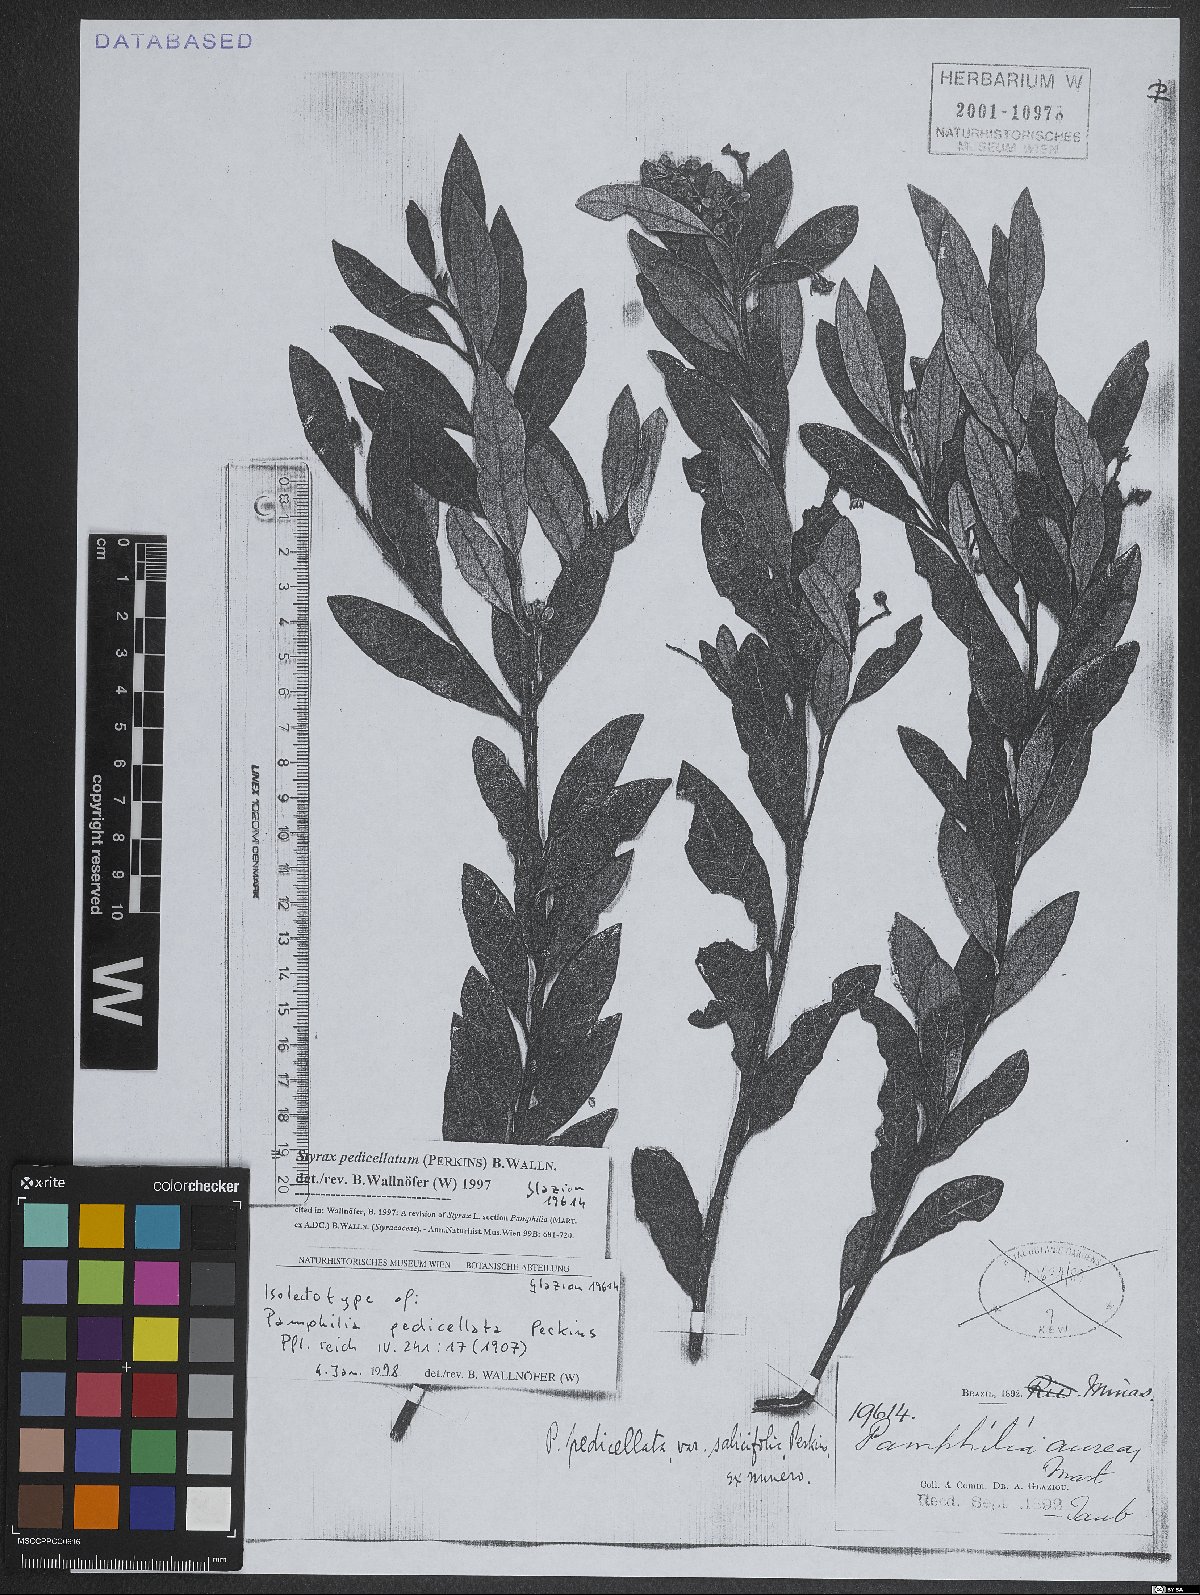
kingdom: Plantae
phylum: Tracheophyta
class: Magnoliopsida
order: Ericales
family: Styracaceae
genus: Styrax
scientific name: Styrax pedicellatus
